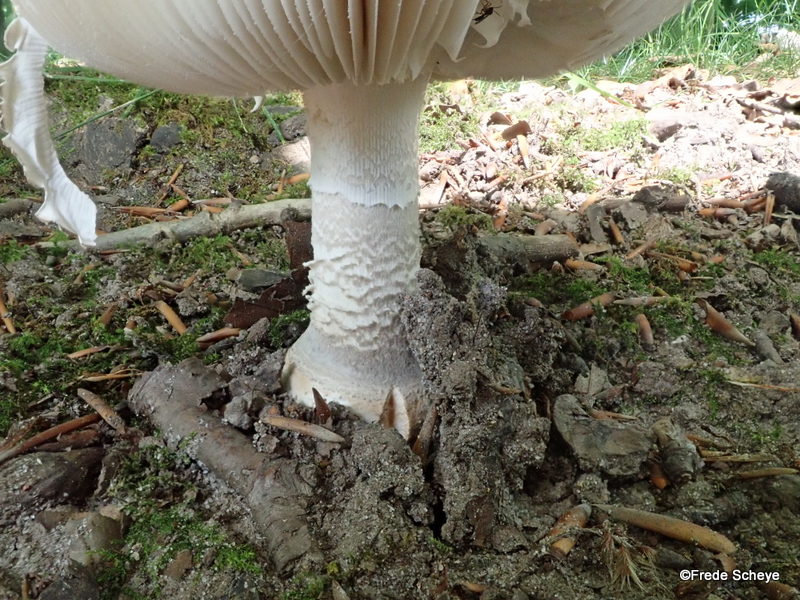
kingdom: Fungi
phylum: Basidiomycota
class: Agaricomycetes
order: Agaricales
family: Amanitaceae
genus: Amanita
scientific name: Amanita
